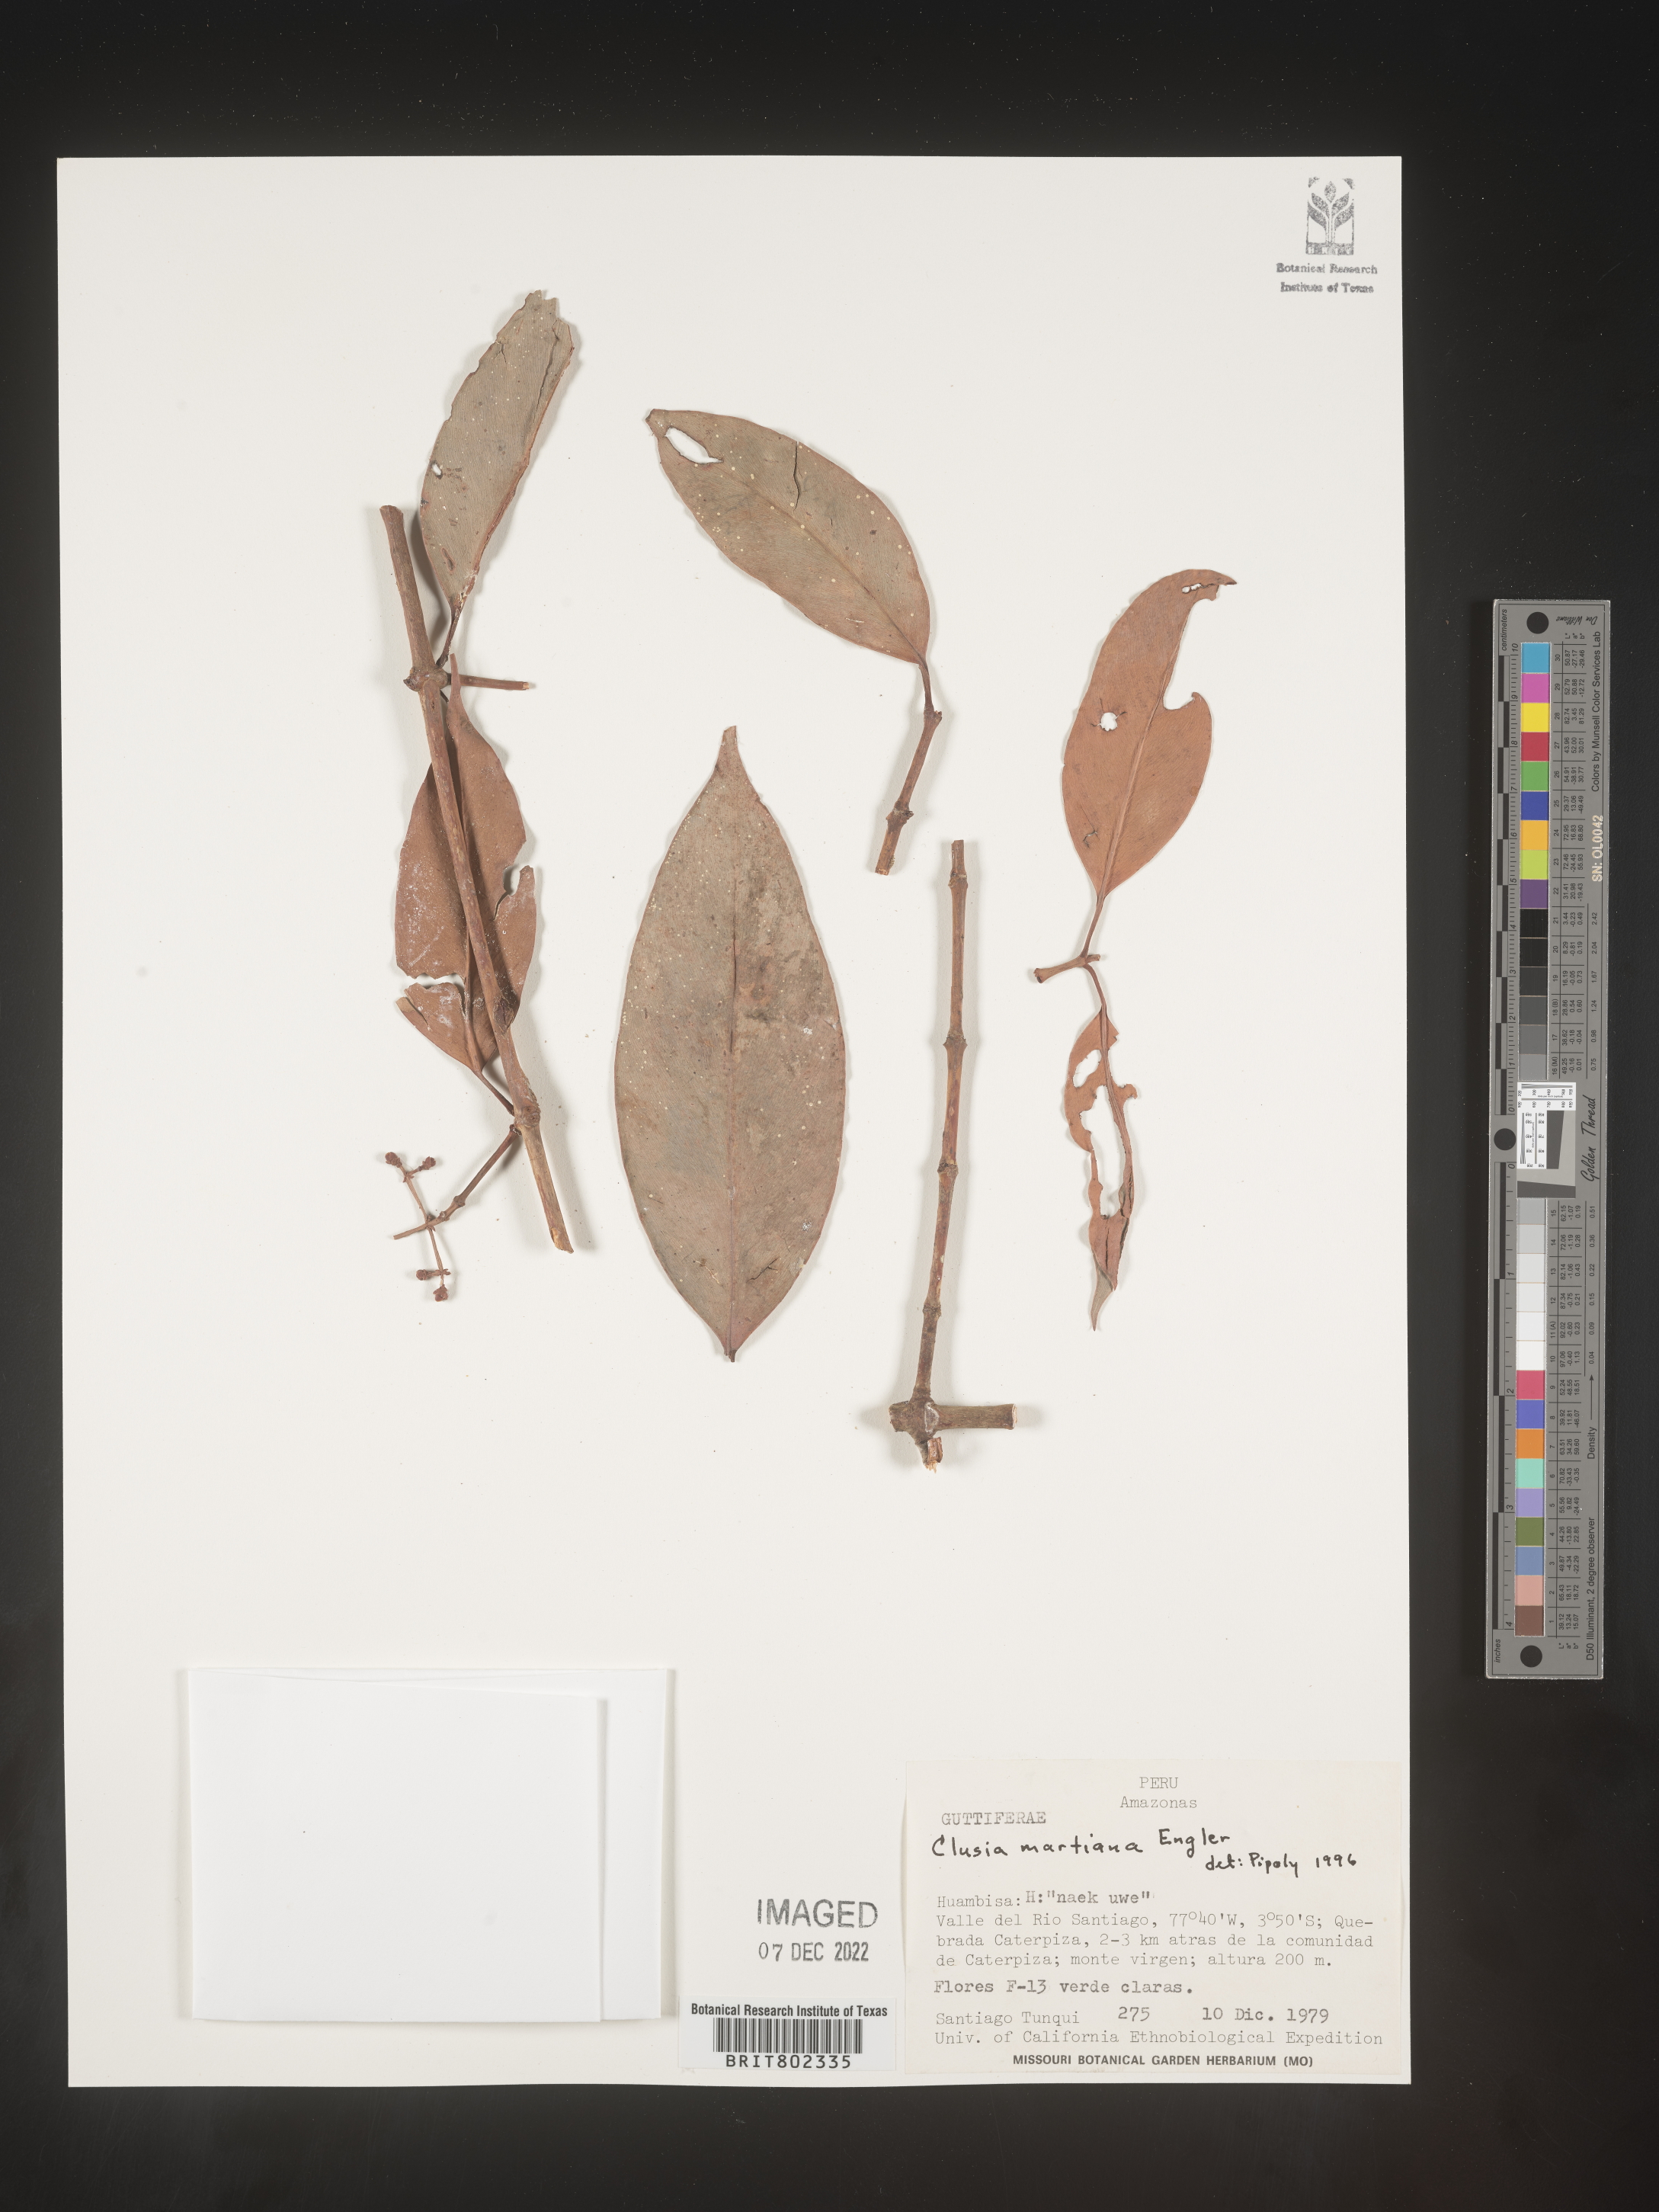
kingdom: Plantae
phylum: Tracheophyta
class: Magnoliopsida
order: Malpighiales
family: Clusiaceae
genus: Clusia
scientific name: Clusia hammeliana
